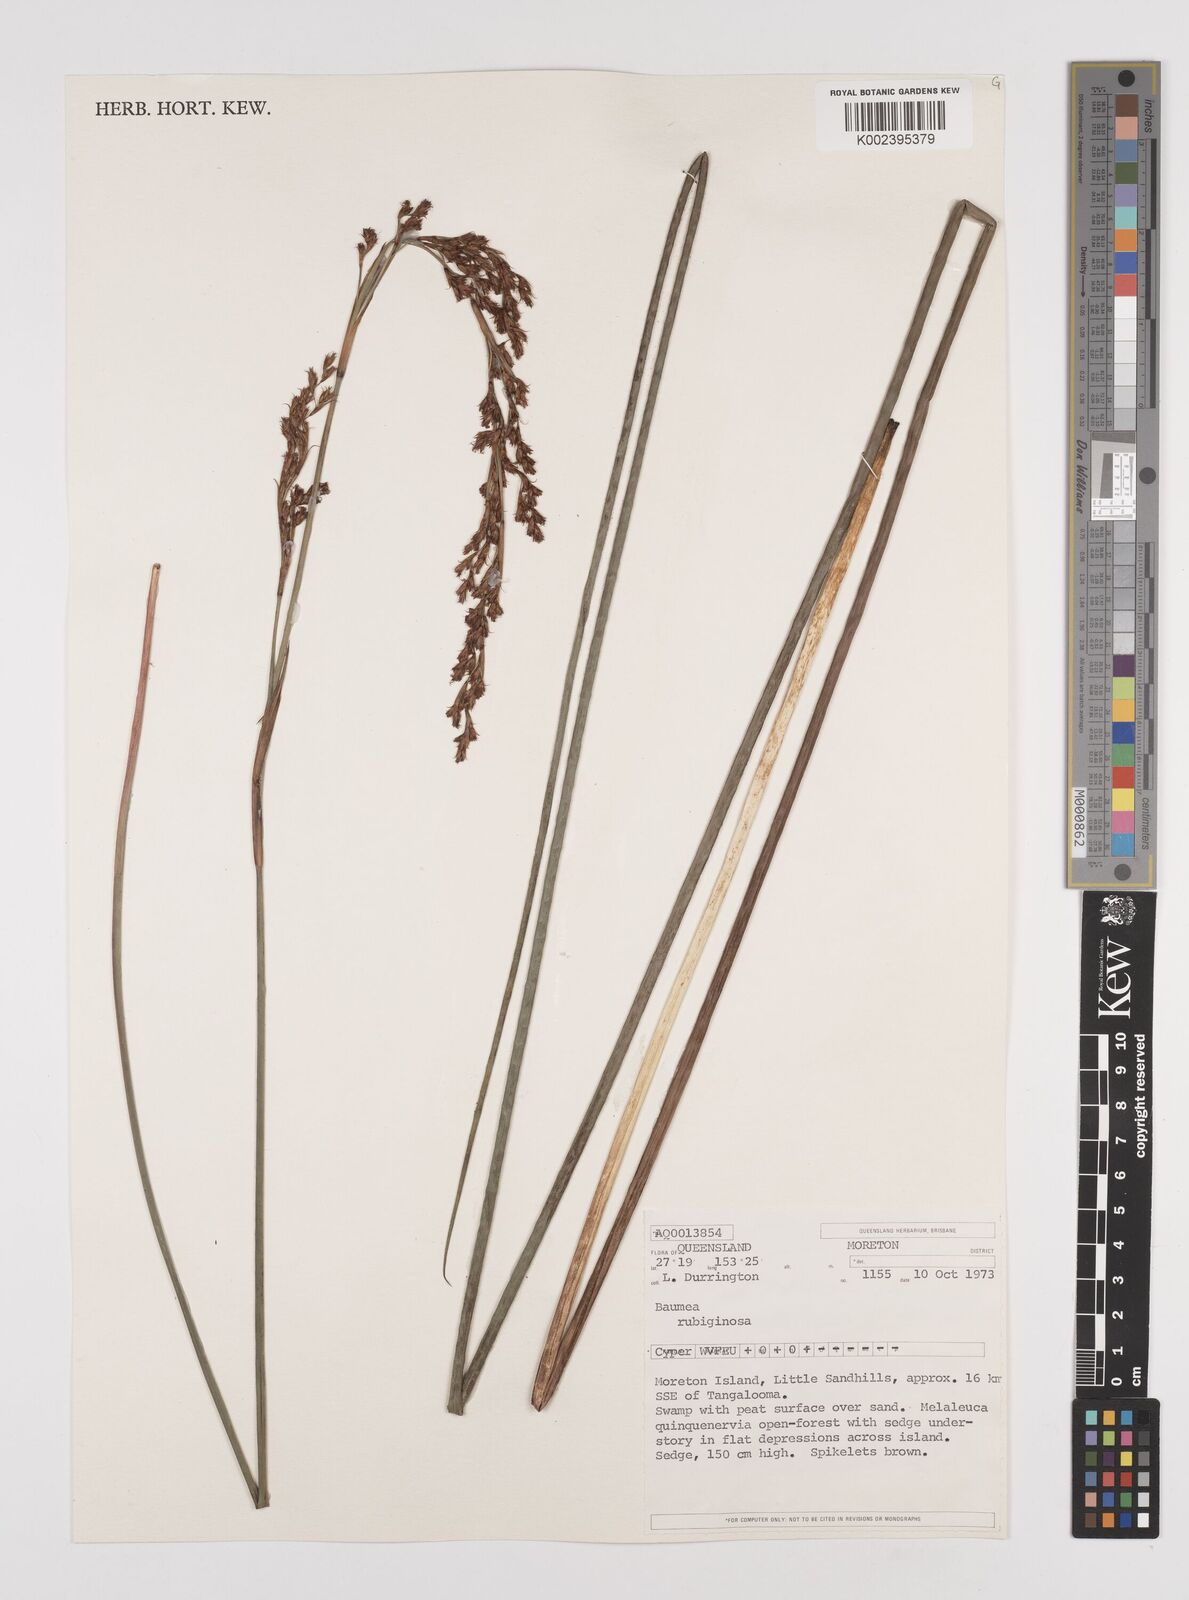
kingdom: Plantae
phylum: Tracheophyta
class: Liliopsida
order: Poales
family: Cyperaceae
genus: Machaerina
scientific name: Machaerina rubiginosa
